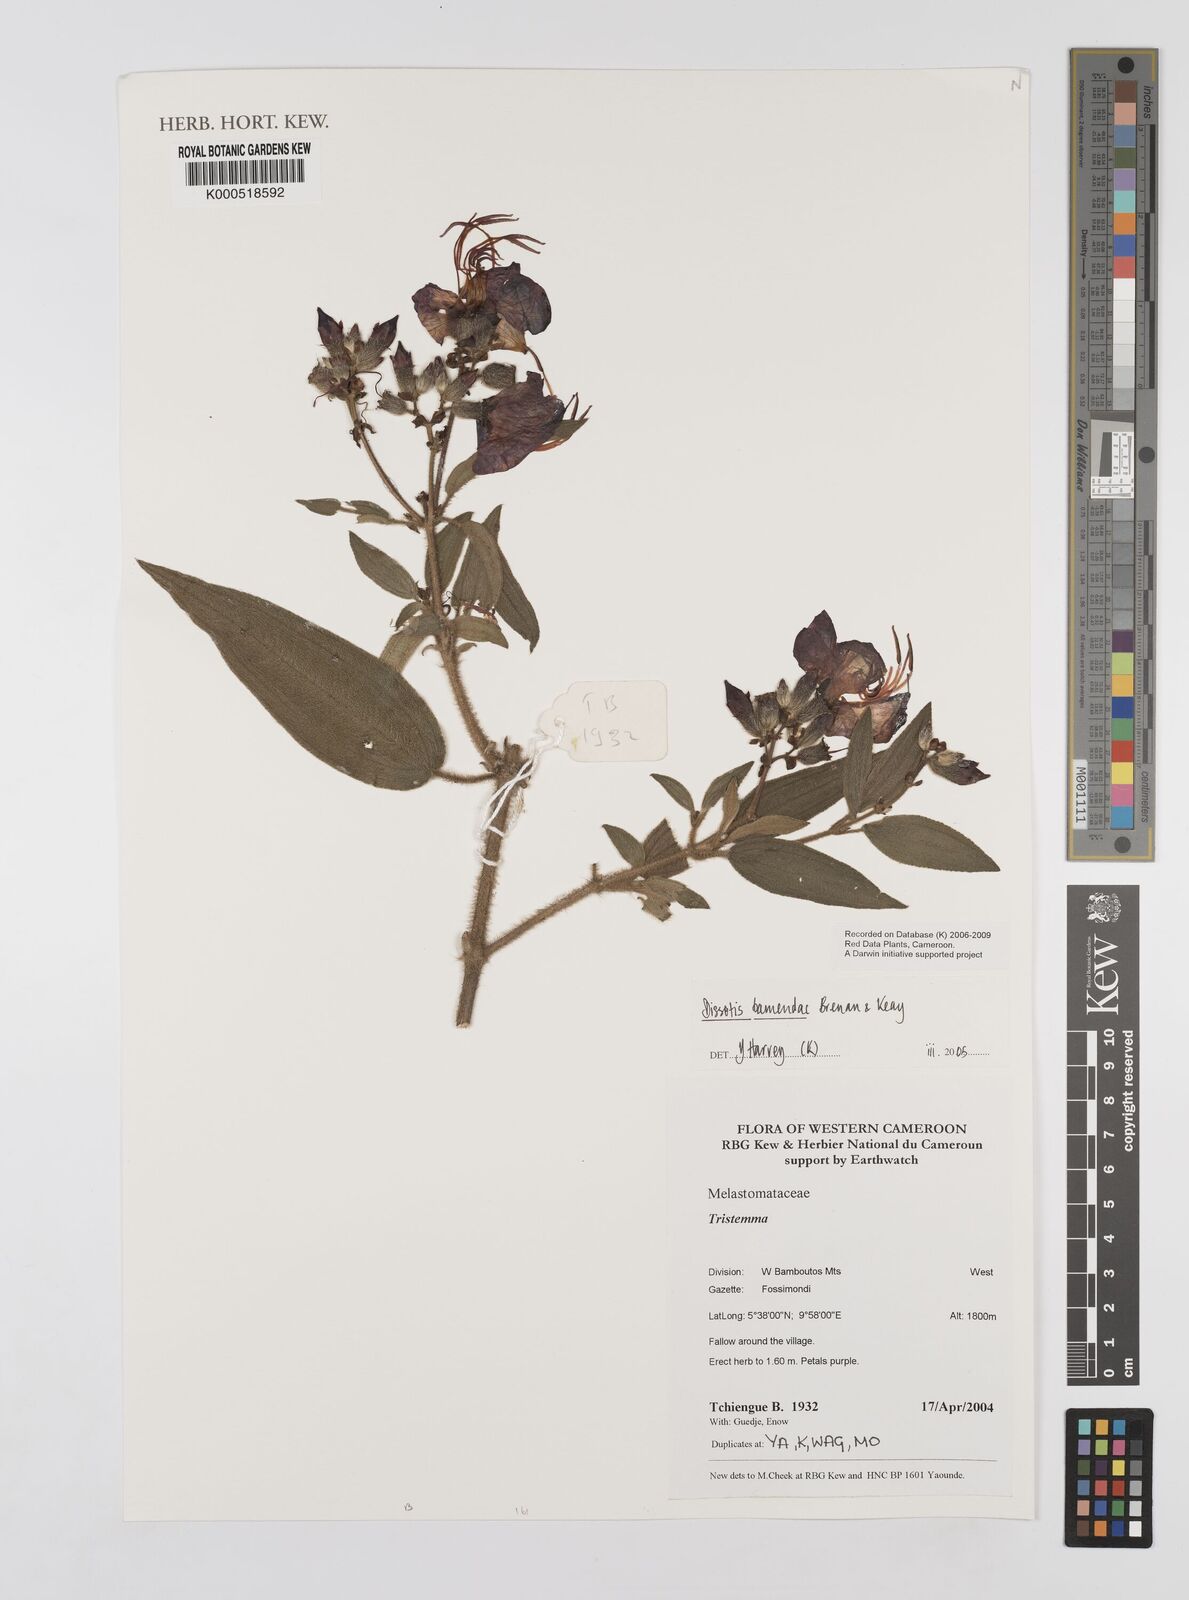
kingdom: Plantae
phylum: Tracheophyta
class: Magnoliopsida
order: Myrtales
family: Melastomataceae
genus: Rosettea
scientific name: Rosettea riparia
